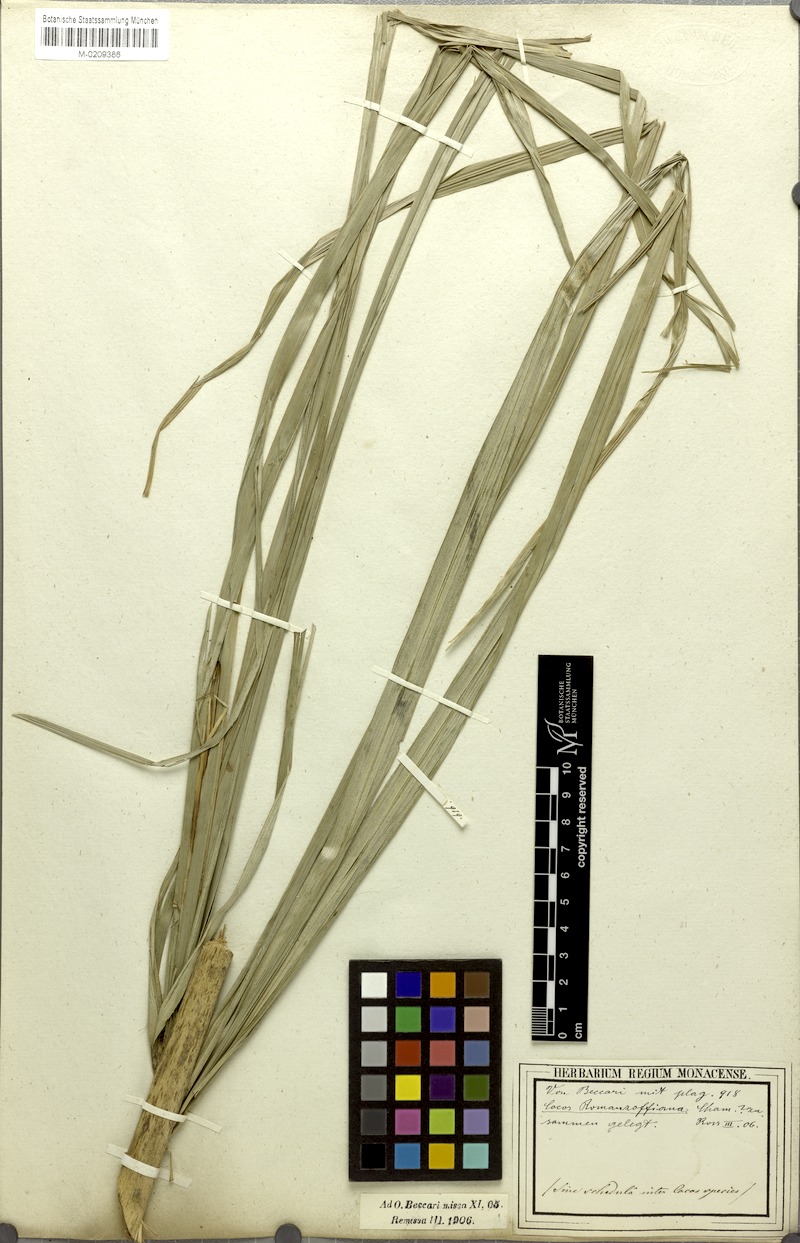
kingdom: Plantae
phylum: Tracheophyta
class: Liliopsida
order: Arecales
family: Arecaceae
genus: Syagrus
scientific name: Syagrus romanzoffiana
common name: Queen palm
